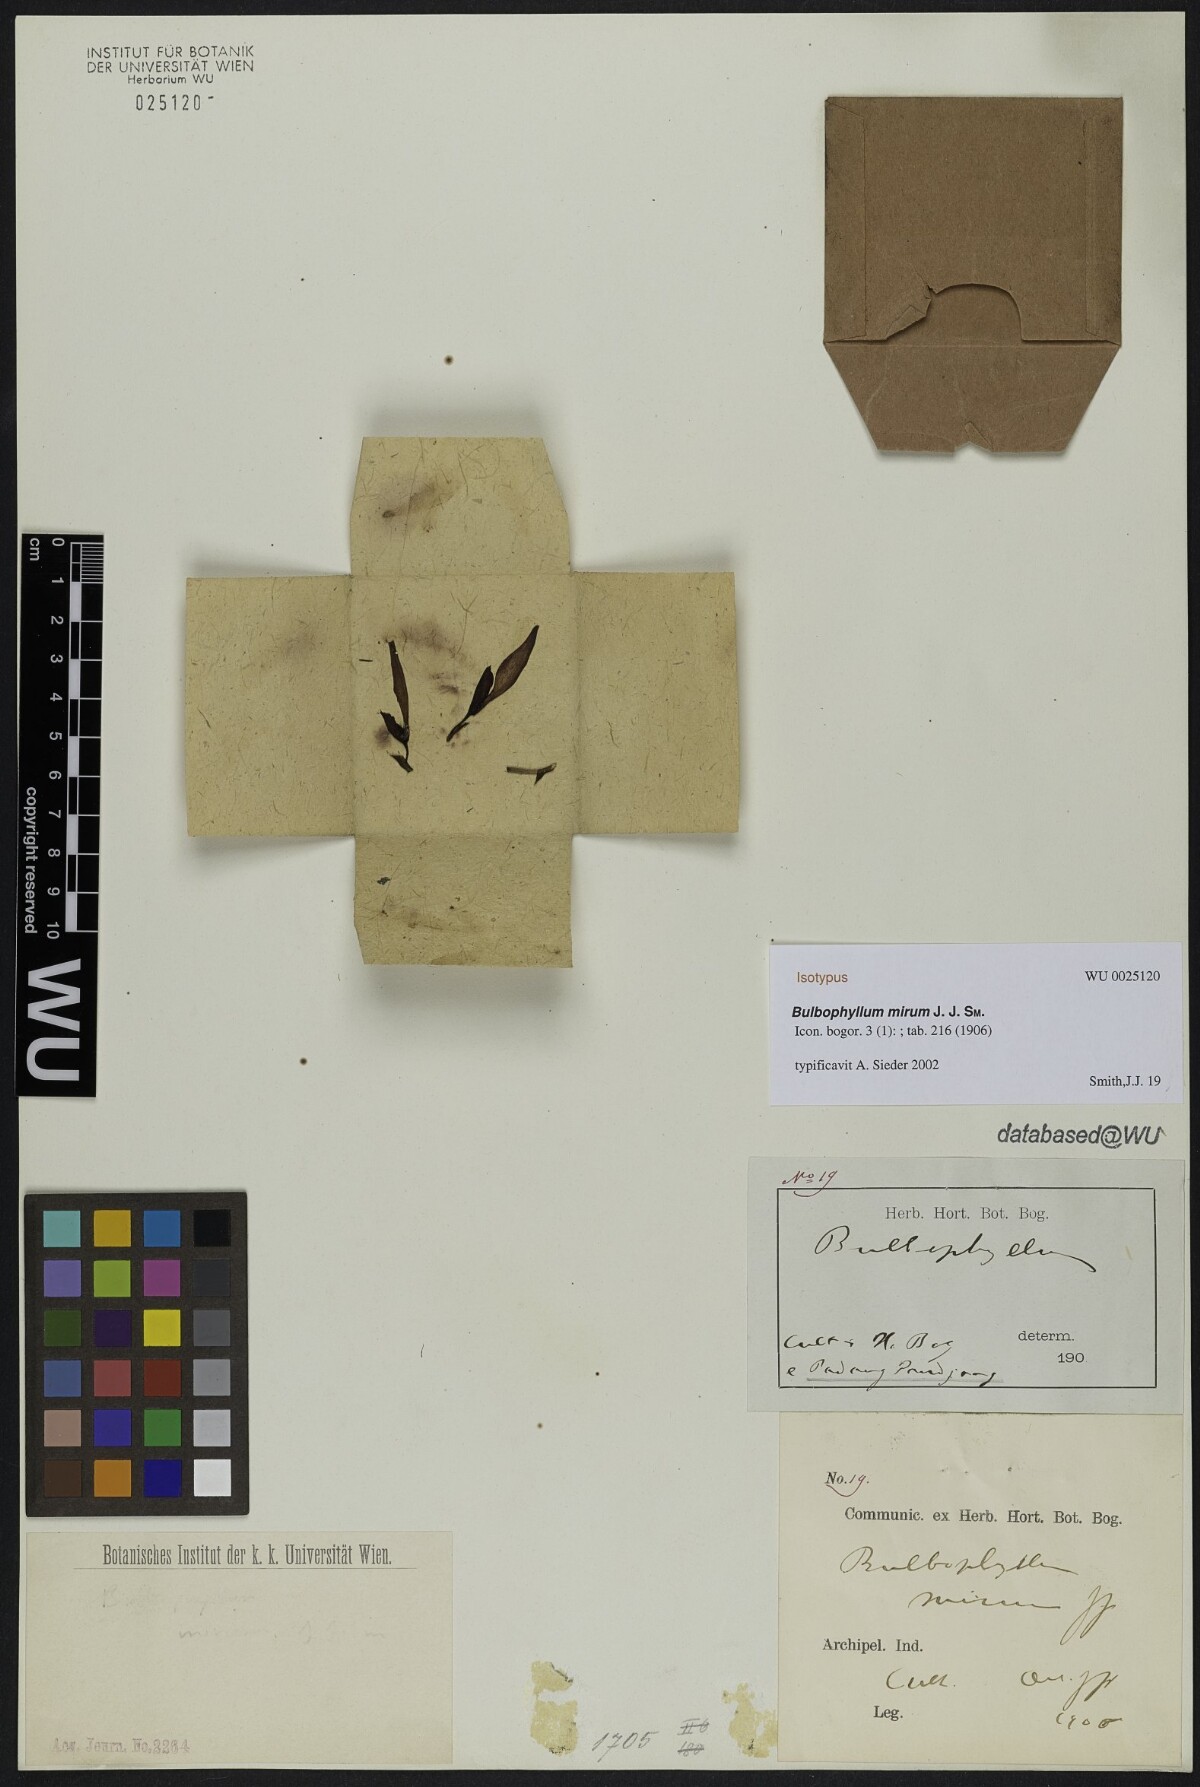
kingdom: Plantae
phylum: Tracheophyta
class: Liliopsida
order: Asparagales
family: Orchidaceae
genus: Bulbophyllum
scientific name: Bulbophyllum mirum
